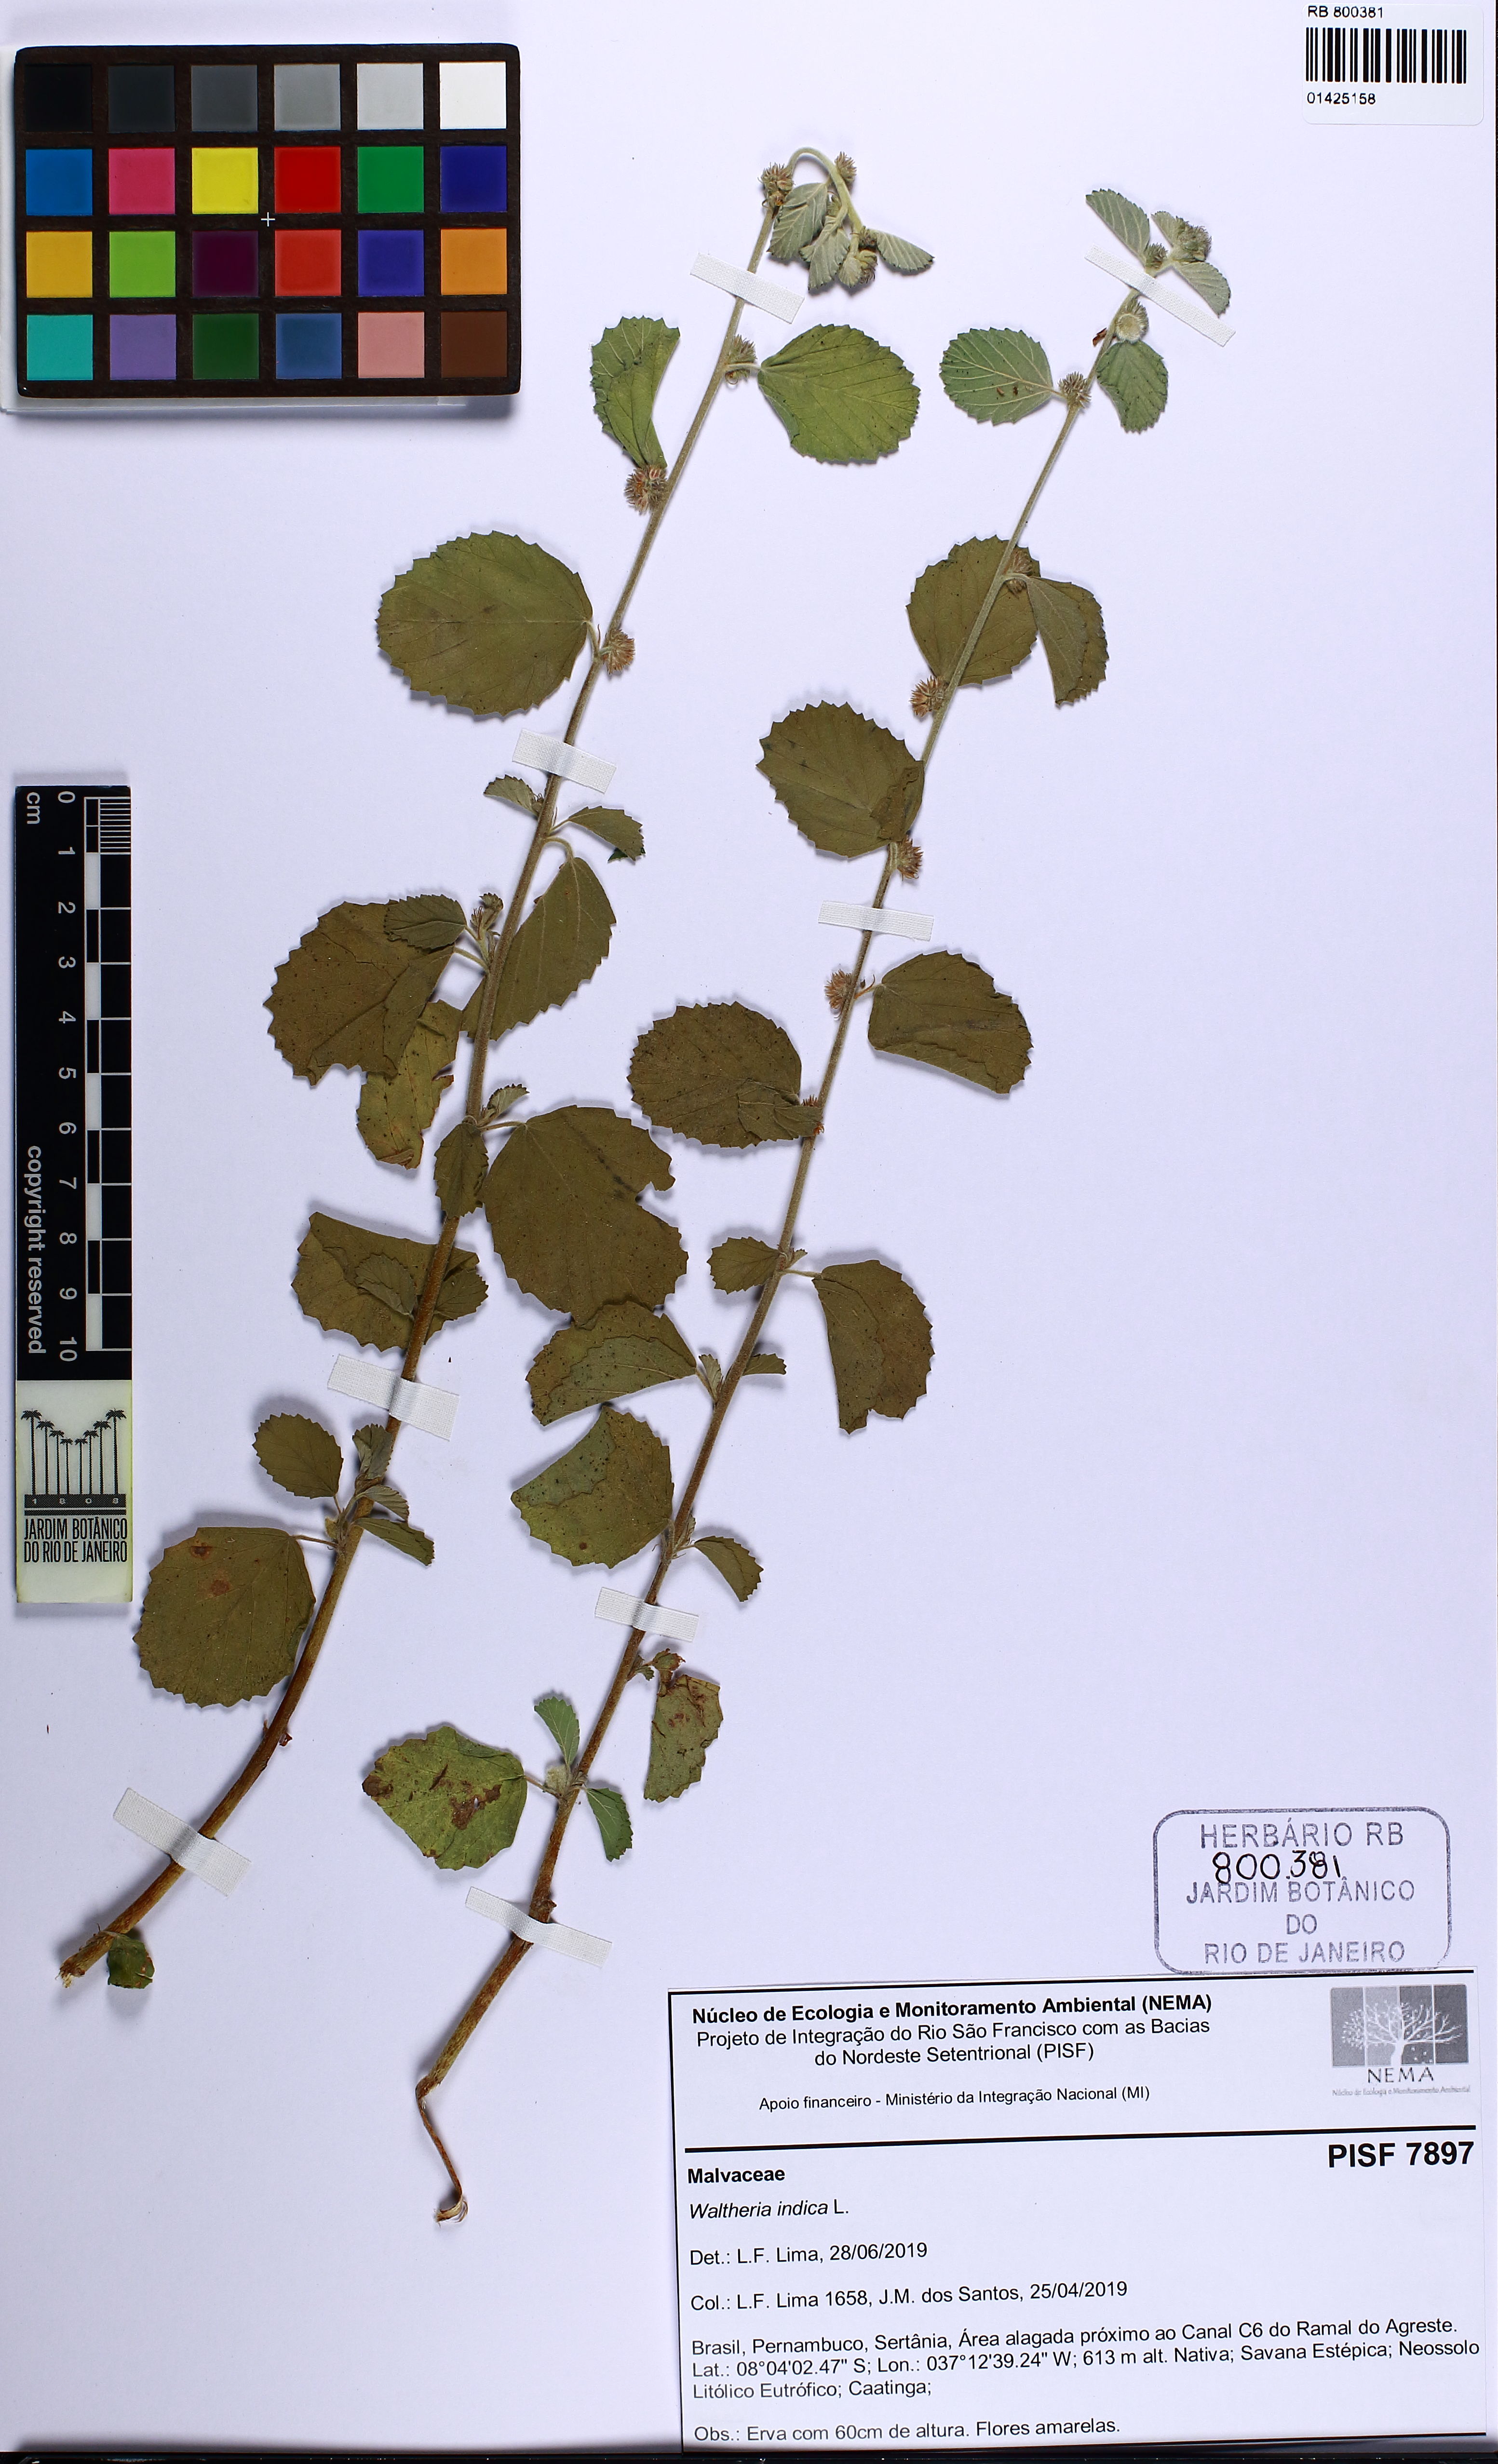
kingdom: Plantae
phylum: Tracheophyta
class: Magnoliopsida
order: Malvales
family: Malvaceae
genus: Waltheria
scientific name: Waltheria indica
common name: Leather-coat
